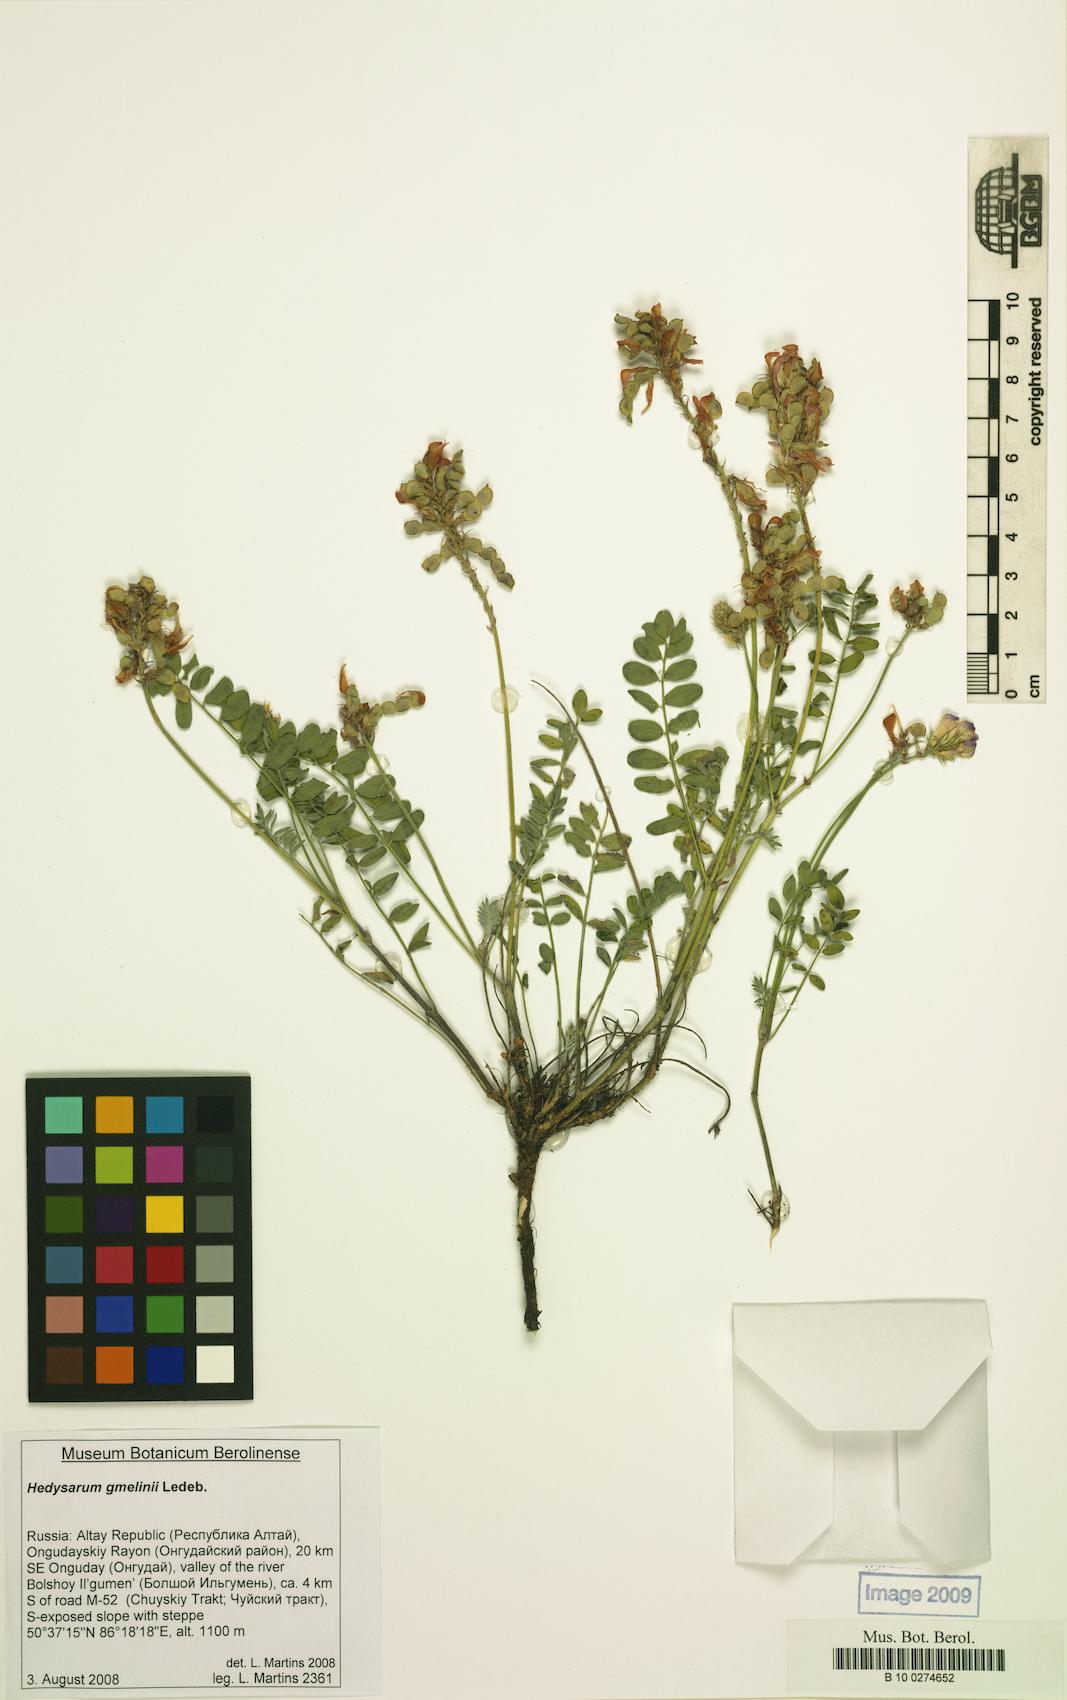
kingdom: Plantae
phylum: Tracheophyta
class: Magnoliopsida
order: Fabales
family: Fabaceae
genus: Hedysarum
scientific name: Hedysarum gmelinii
